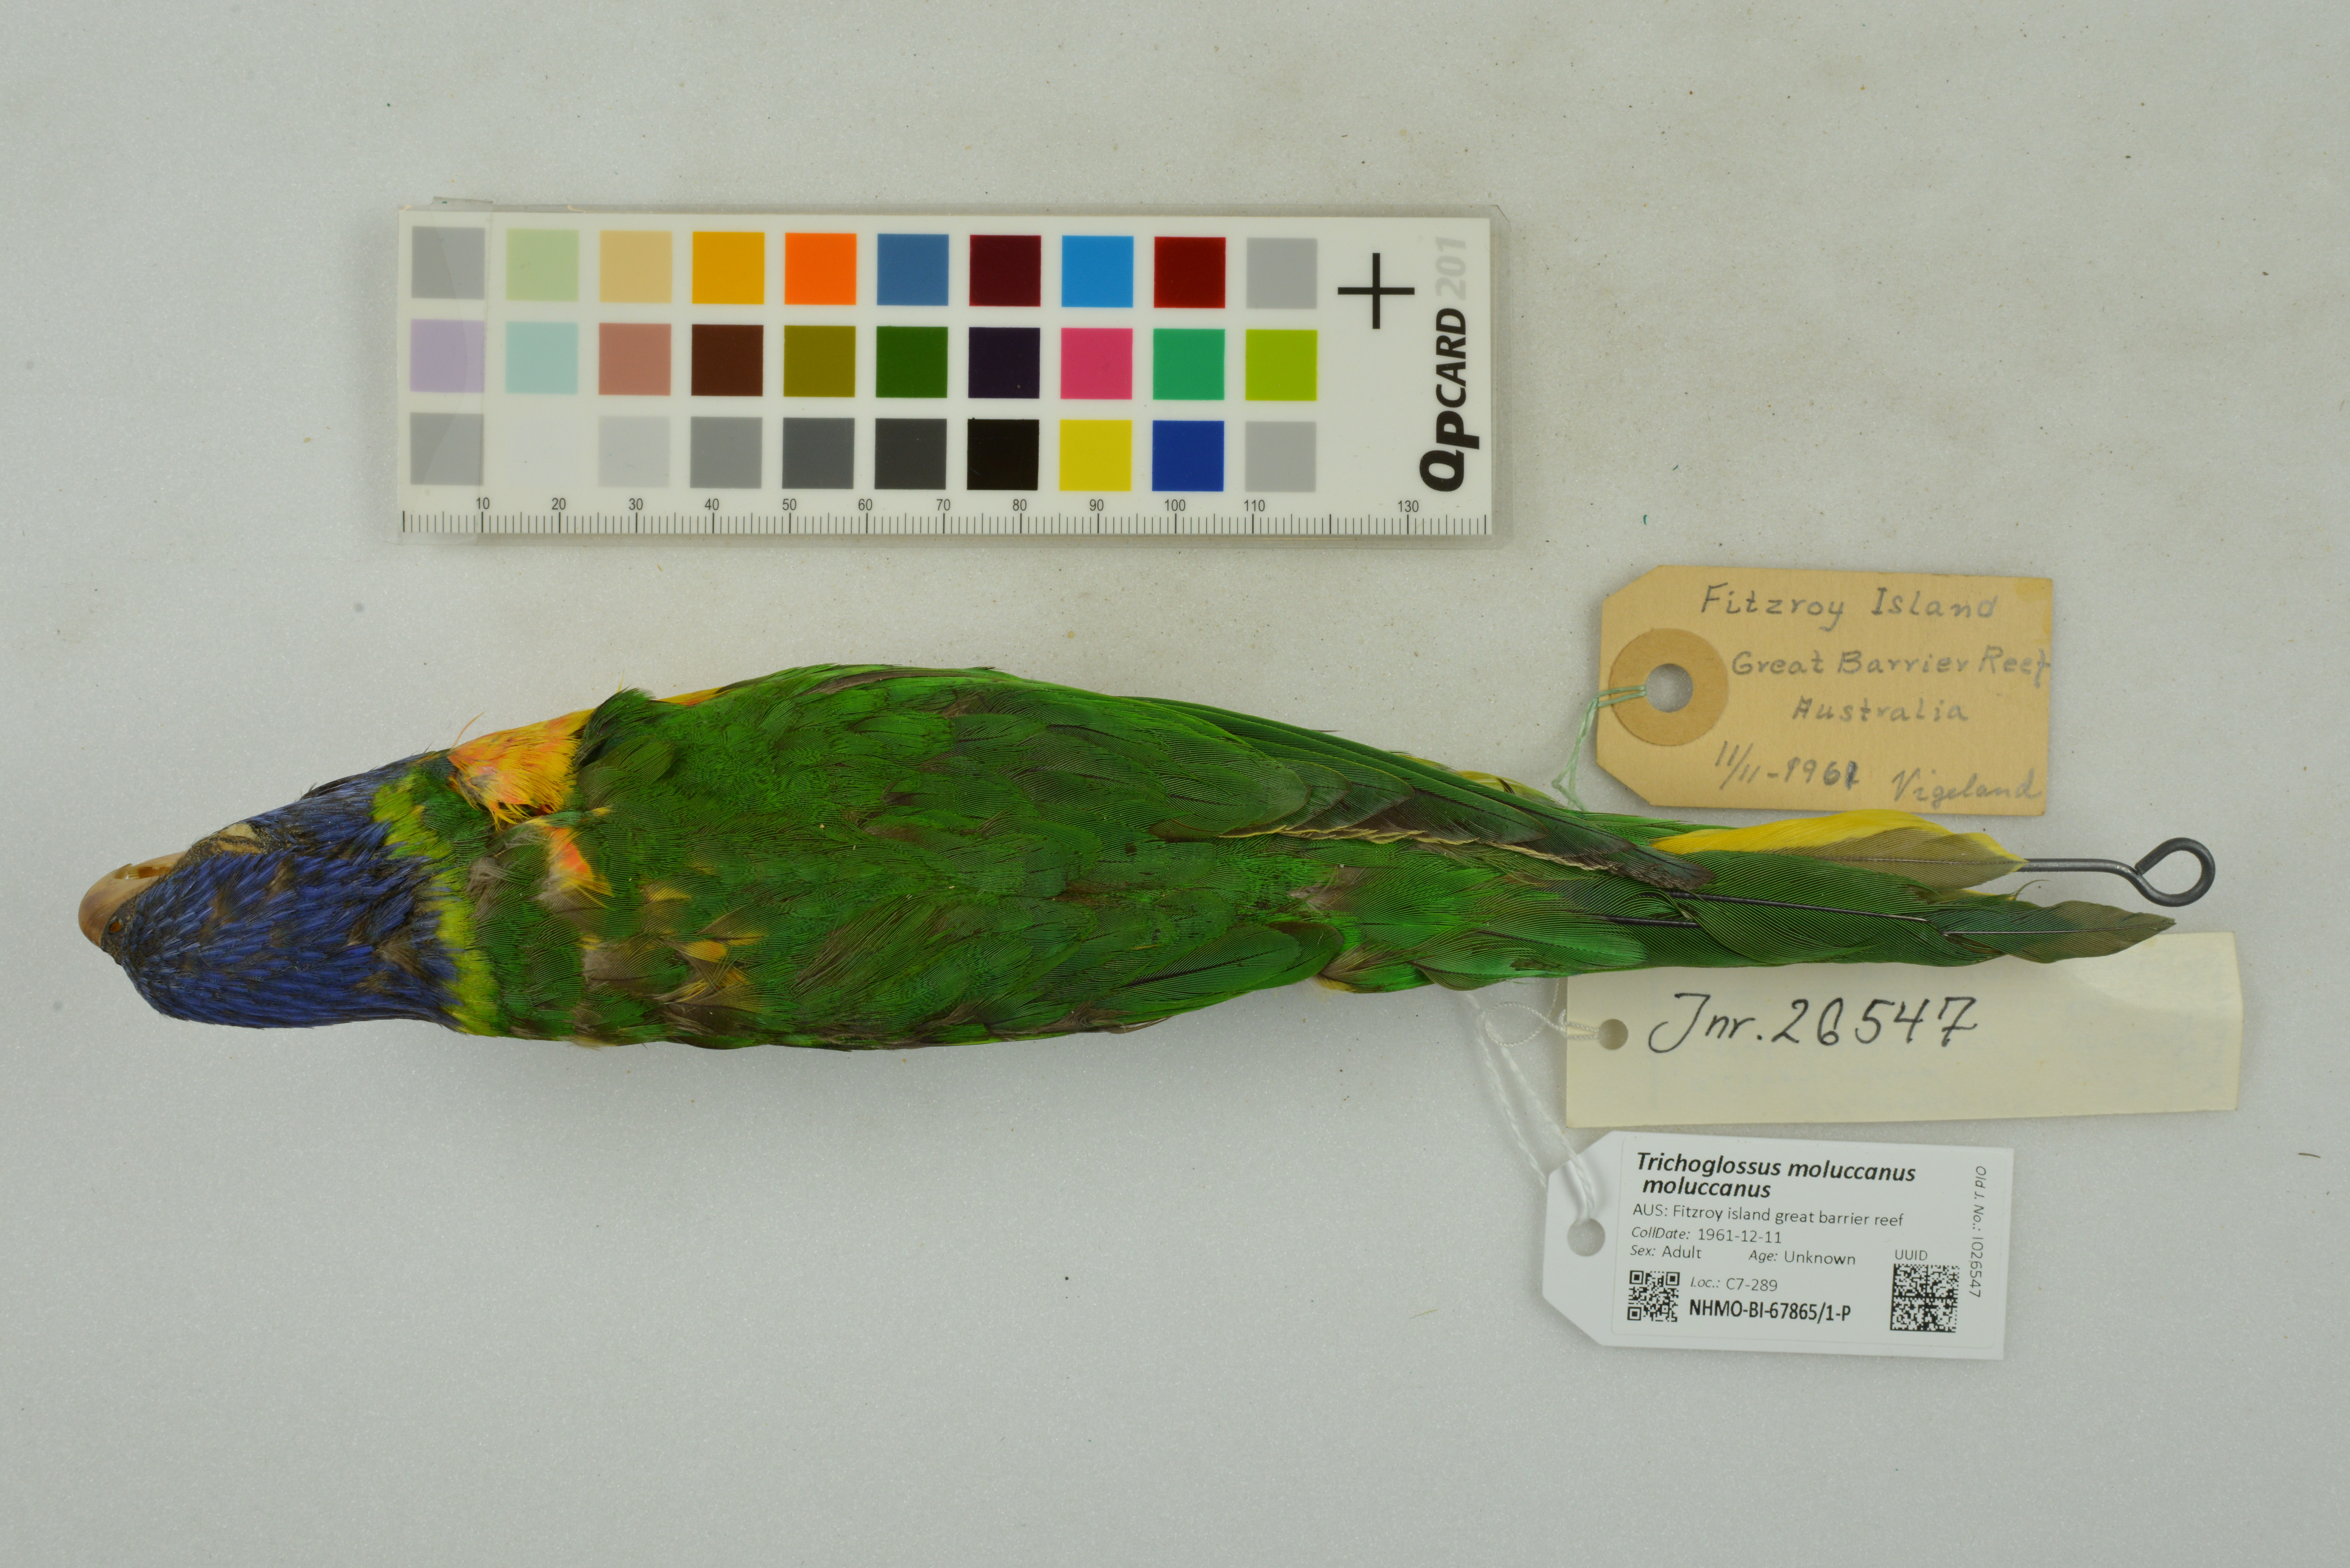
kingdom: Animalia
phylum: Chordata
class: Aves
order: Psittaciformes
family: Psittacidae
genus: Trichoglossus
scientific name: Trichoglossus haematodus
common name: Coconut lorikeet
